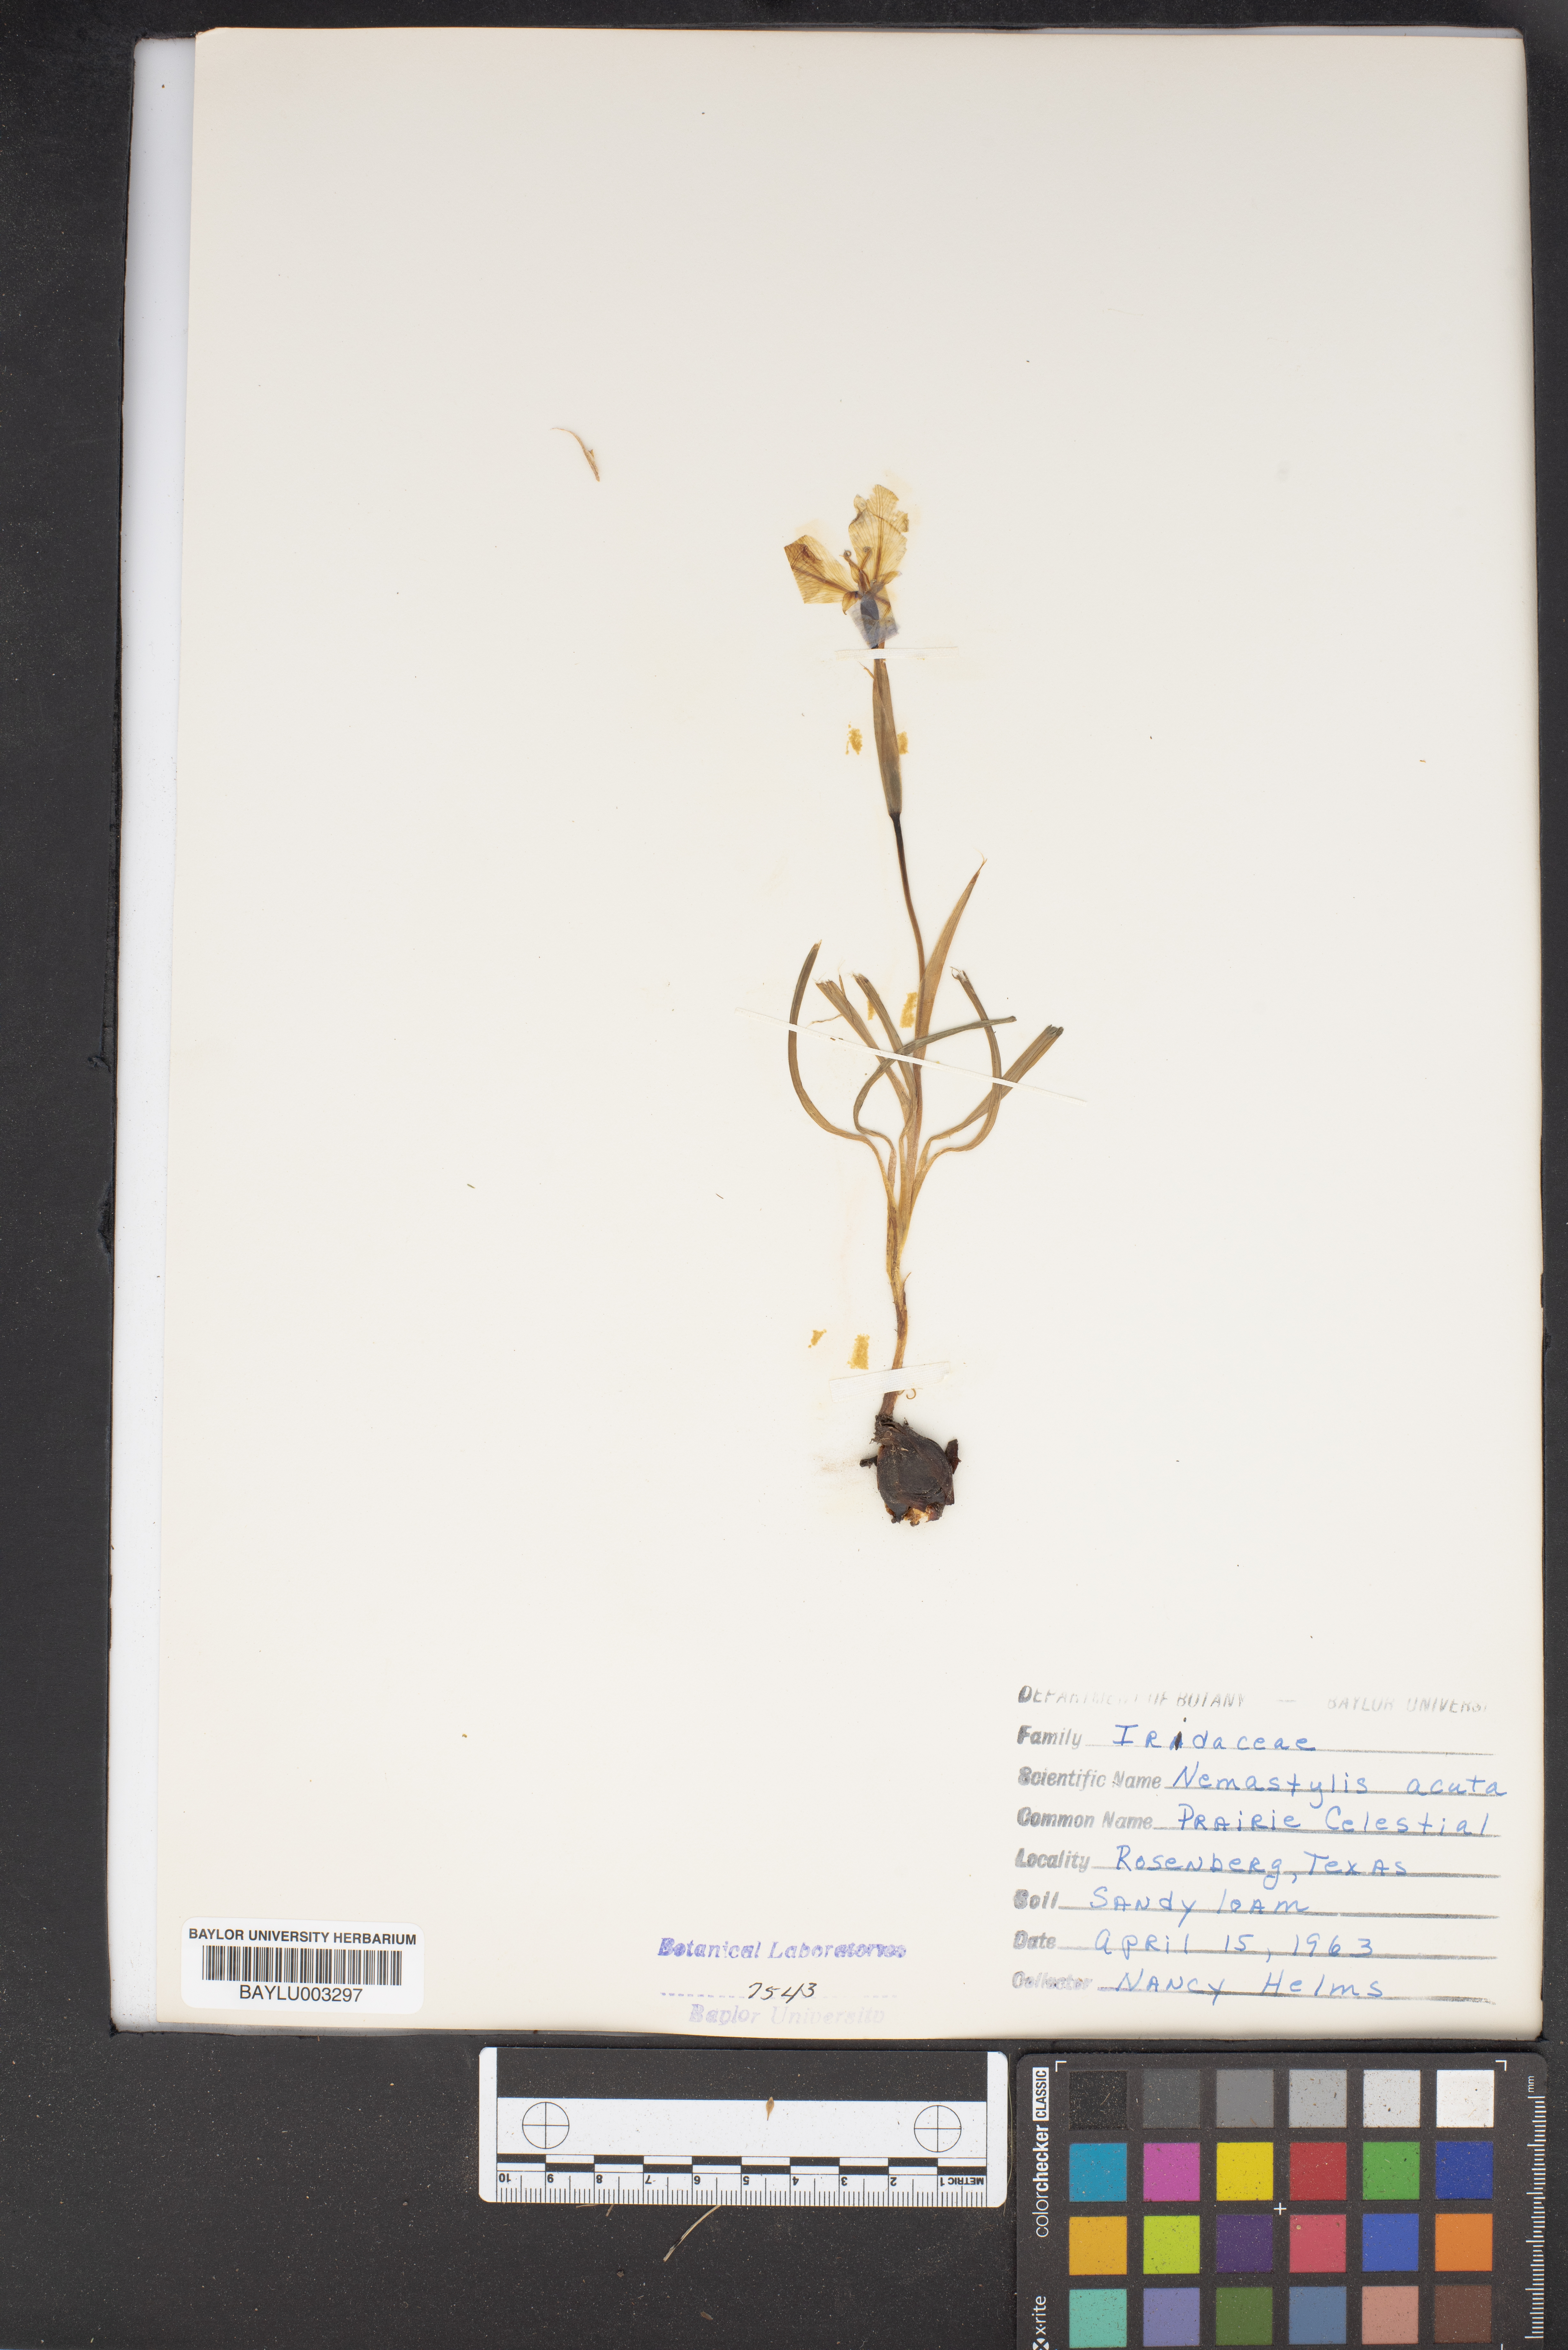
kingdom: Plantae
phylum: Tracheophyta
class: Liliopsida
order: Asparagales
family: Iridaceae
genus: Nemastylis
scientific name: Nemastylis geminiflora
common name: Prairie celestial
